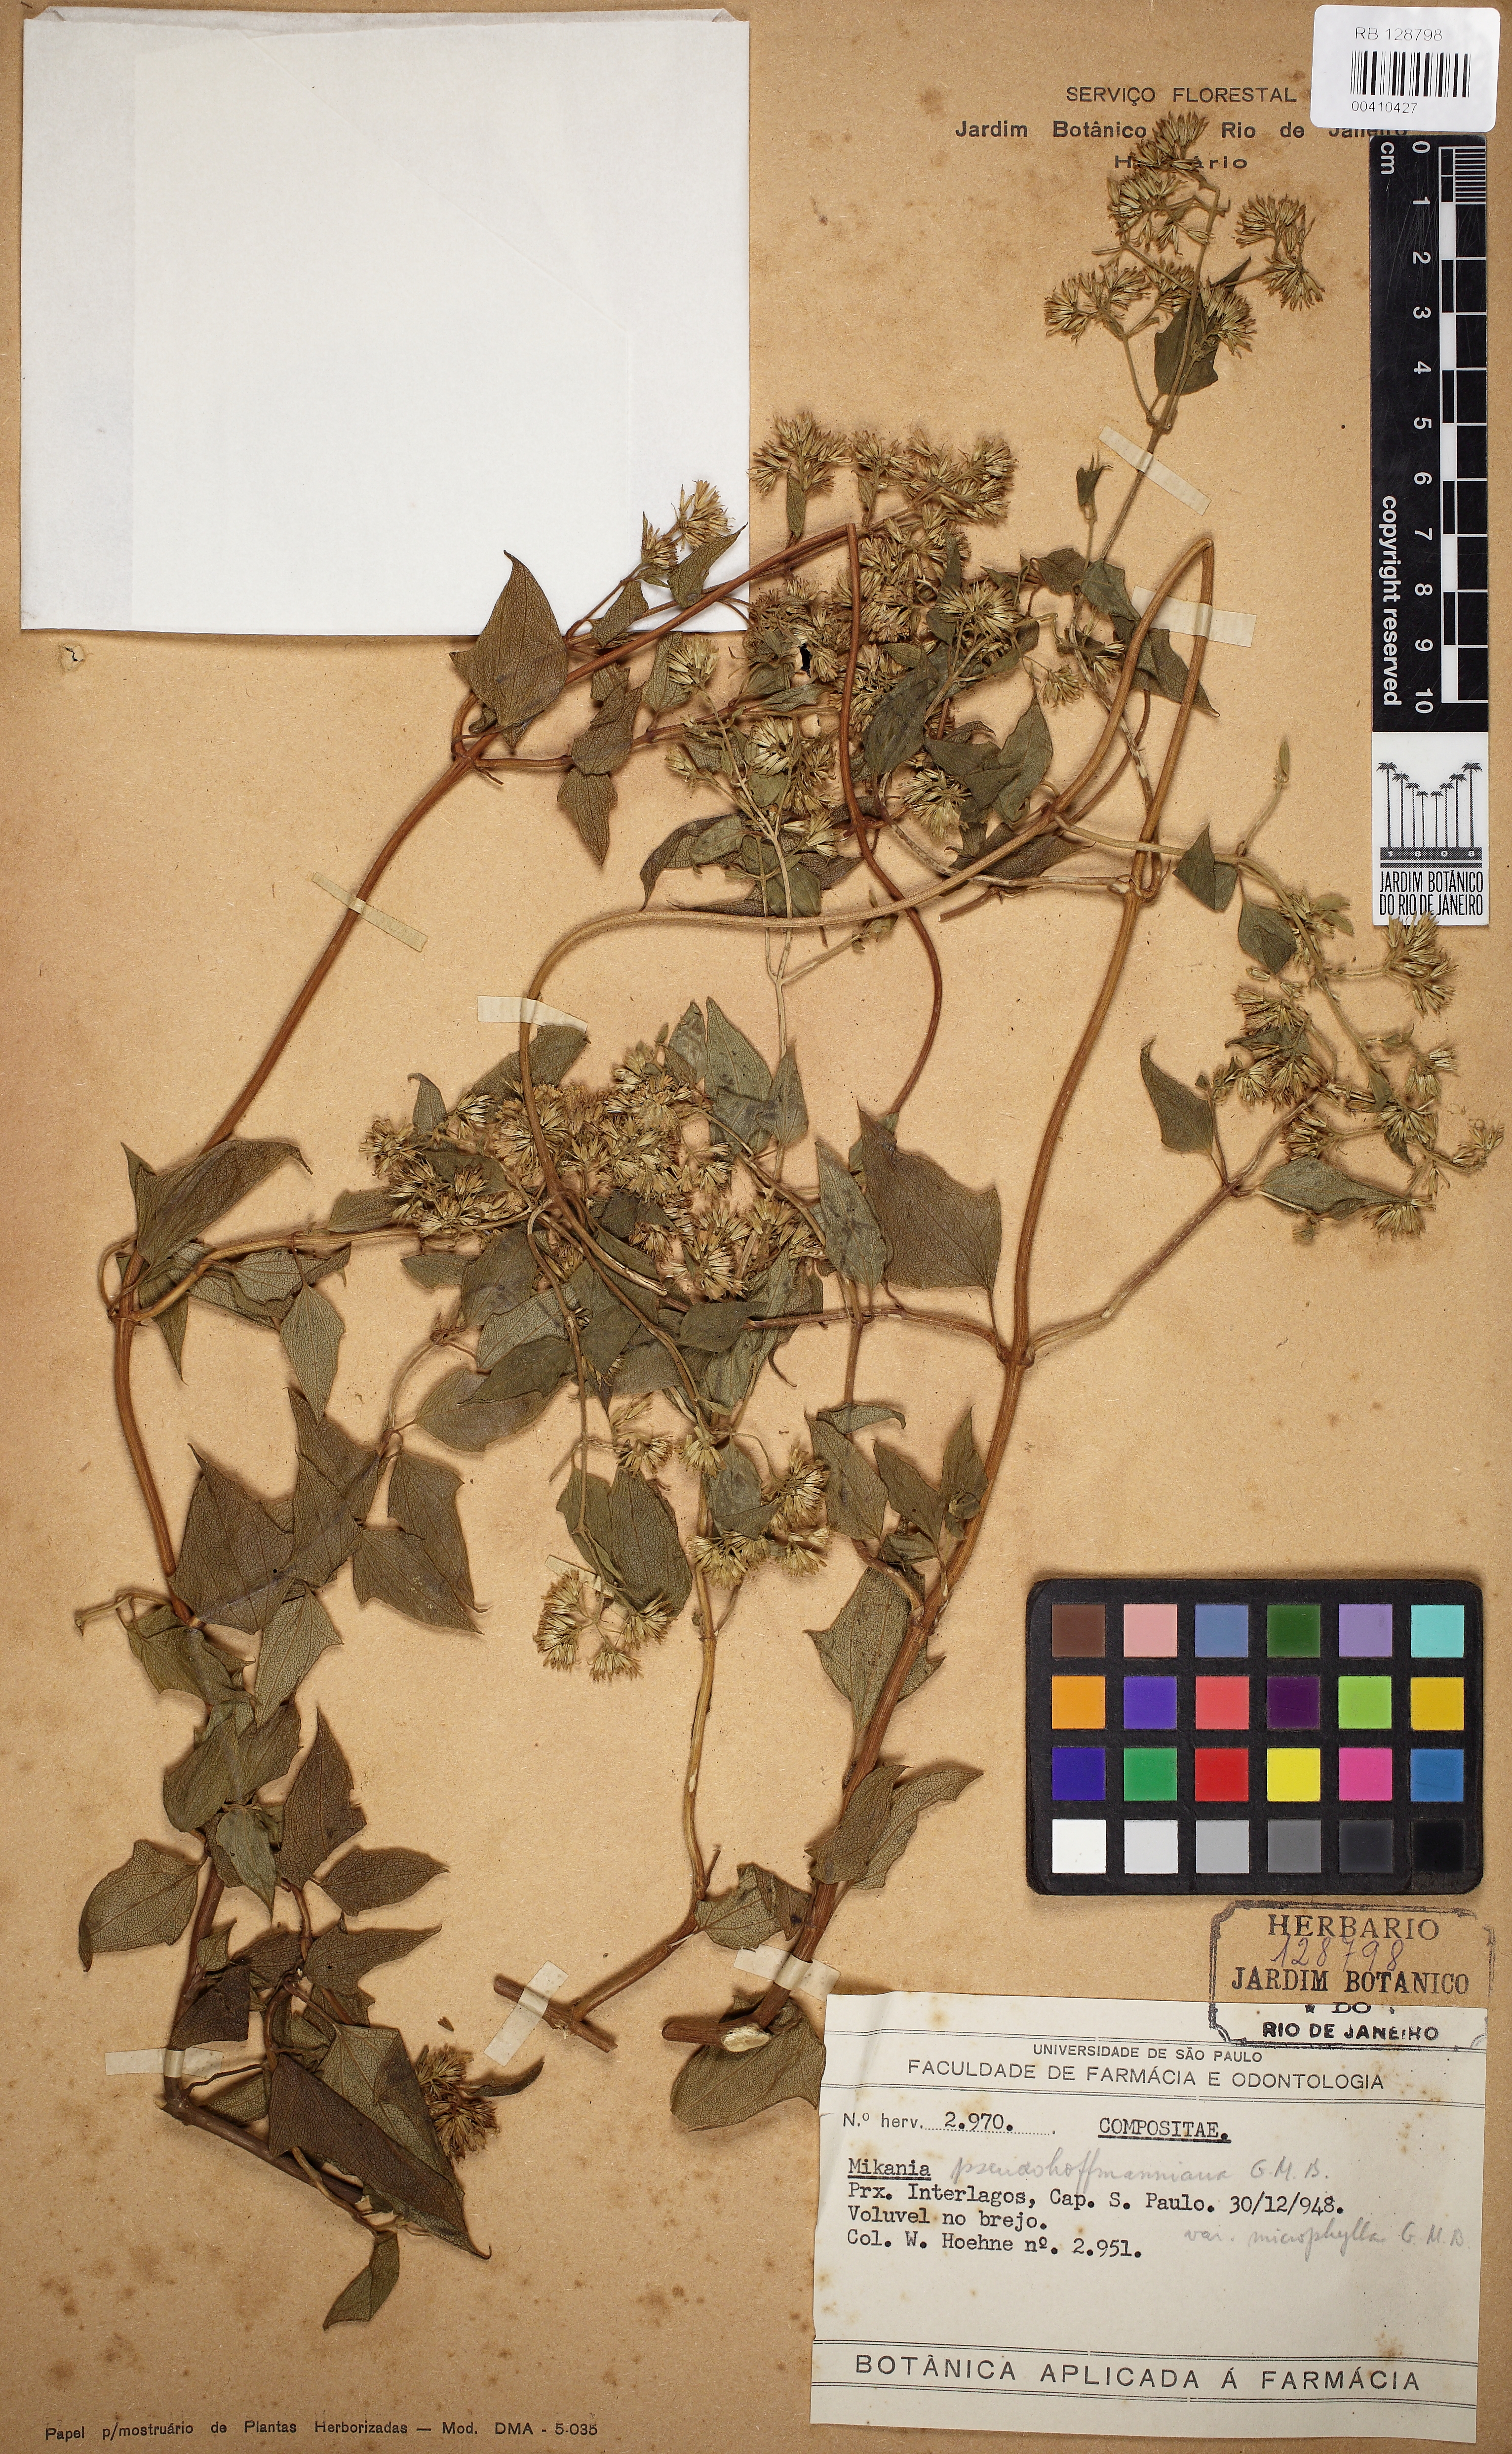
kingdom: Plantae
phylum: Tracheophyta
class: Magnoliopsida
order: Asterales
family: Asteraceae
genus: Mikania
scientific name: Mikania pseudohoffmanniana
